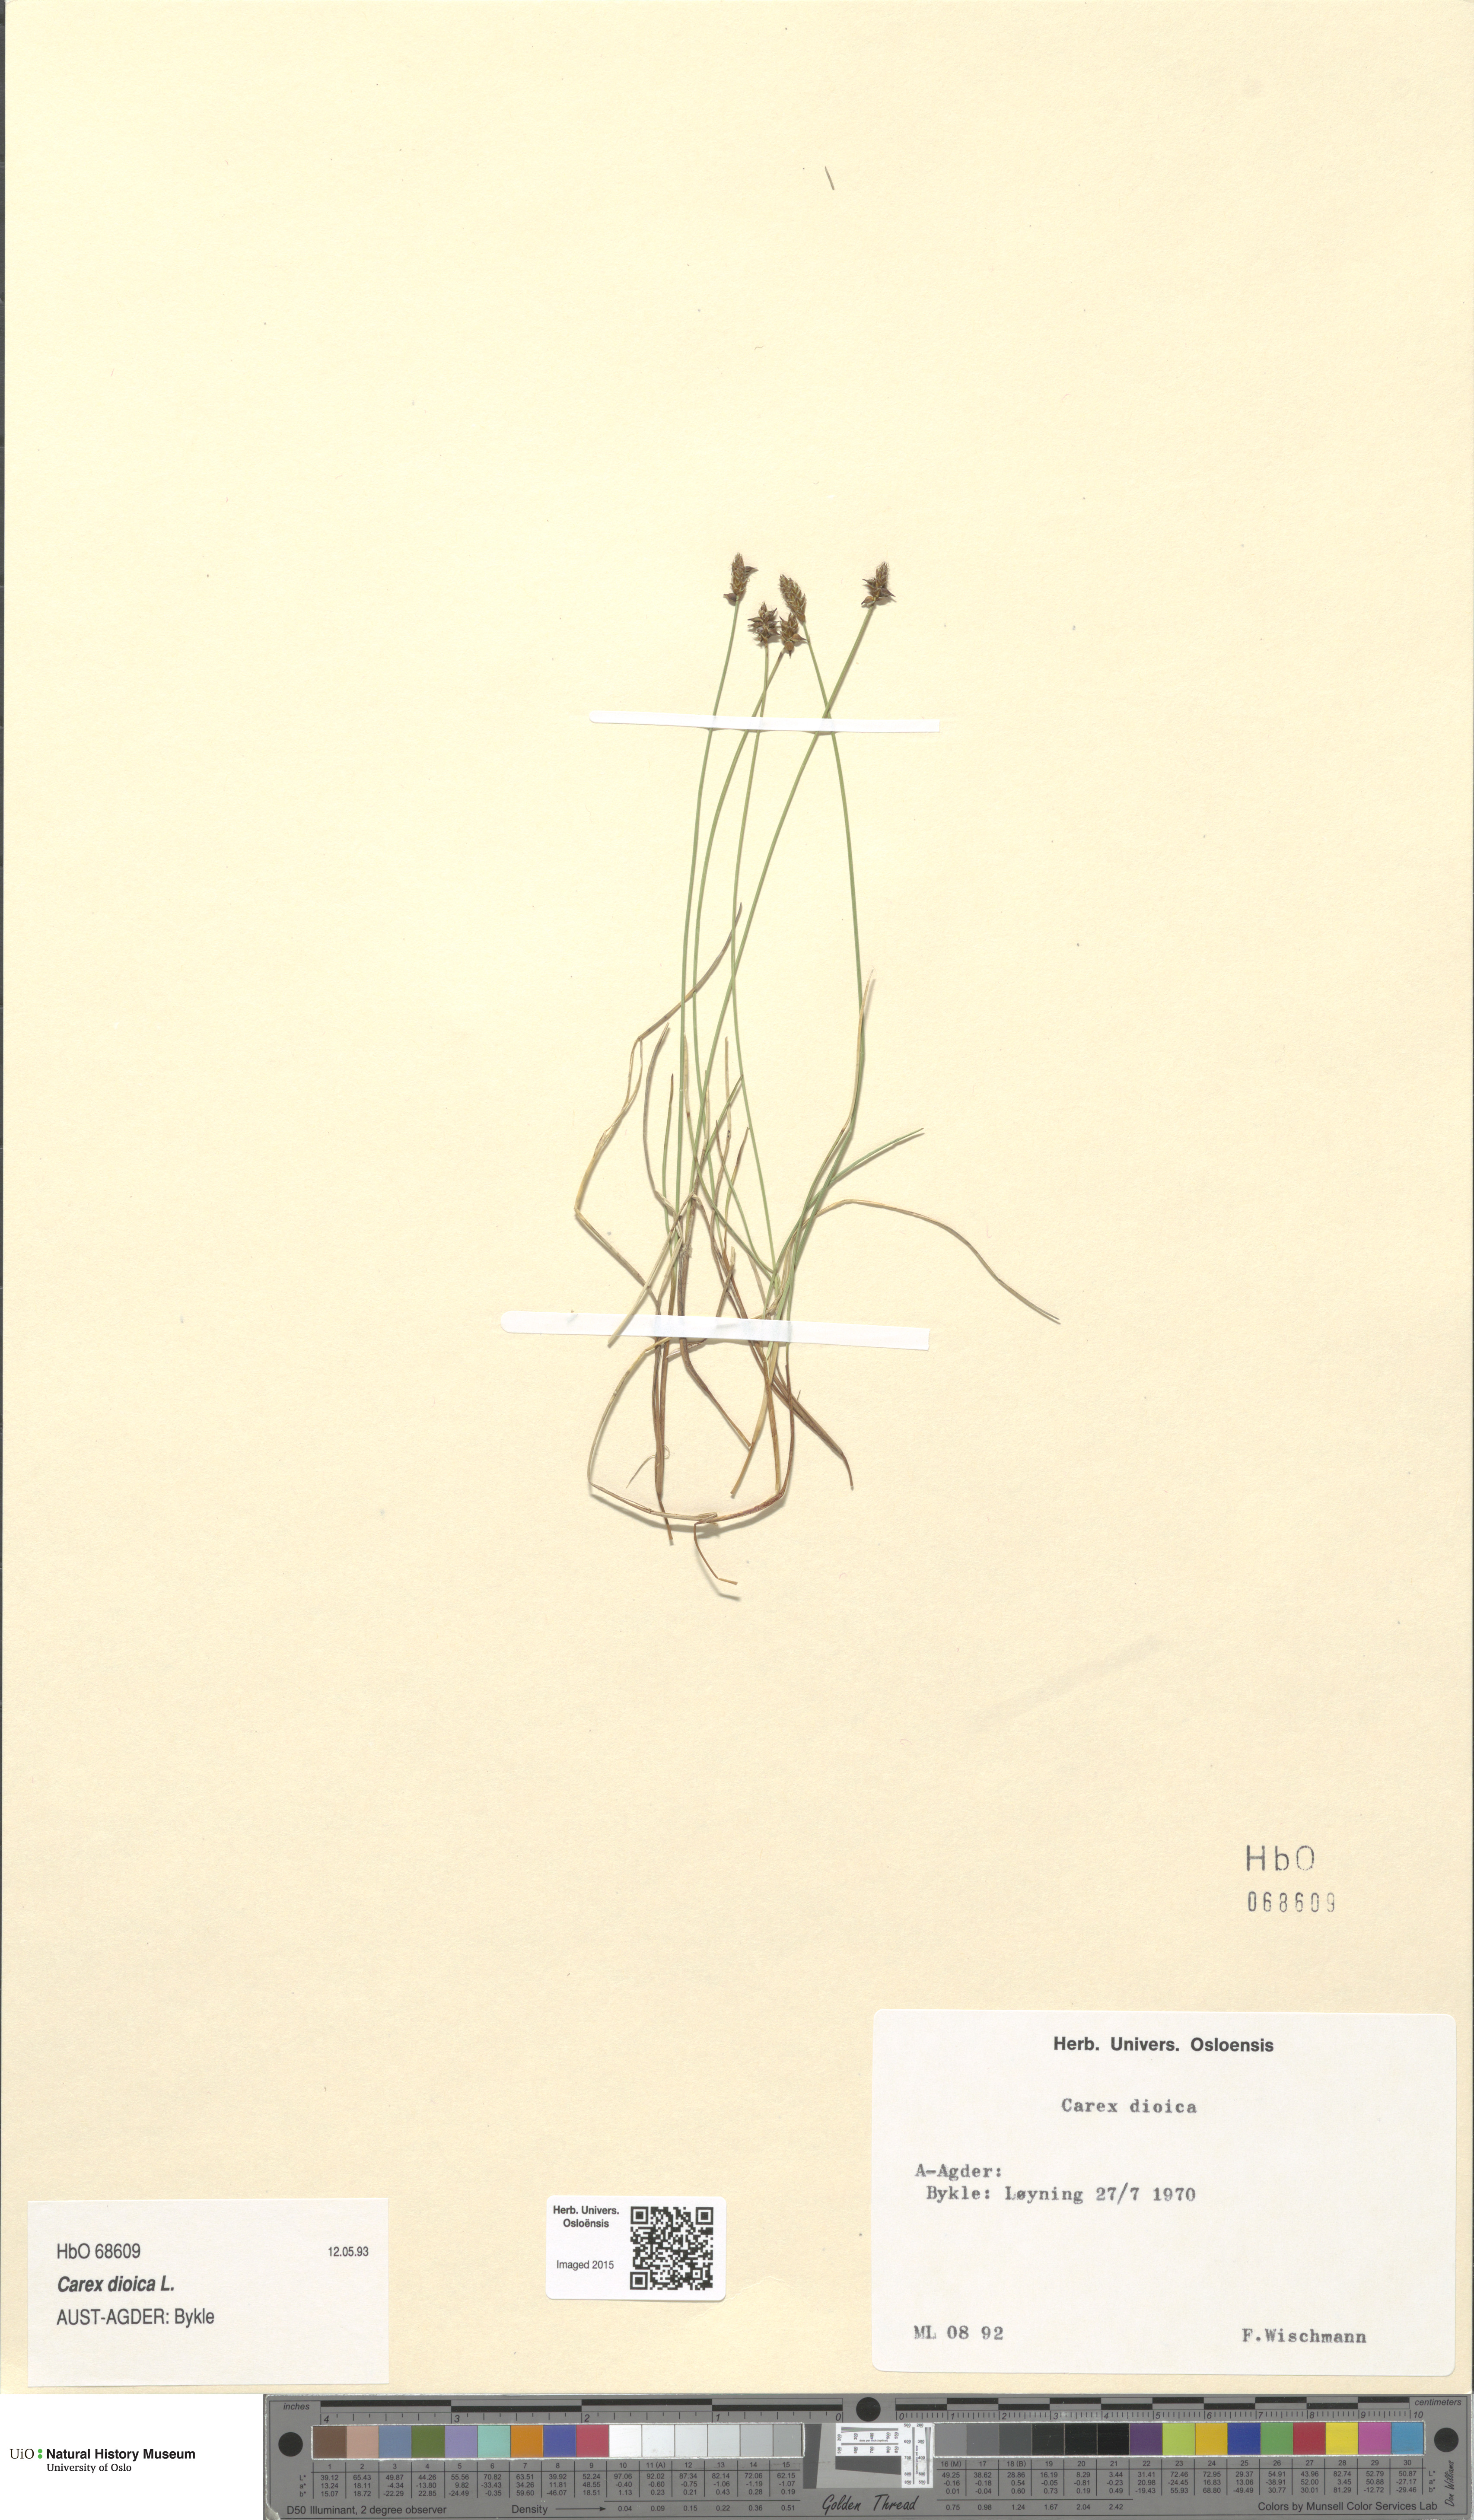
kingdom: Plantae
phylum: Tracheophyta
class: Liliopsida
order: Poales
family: Cyperaceae
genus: Carex
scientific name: Carex dioica
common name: Dioecious sedge
